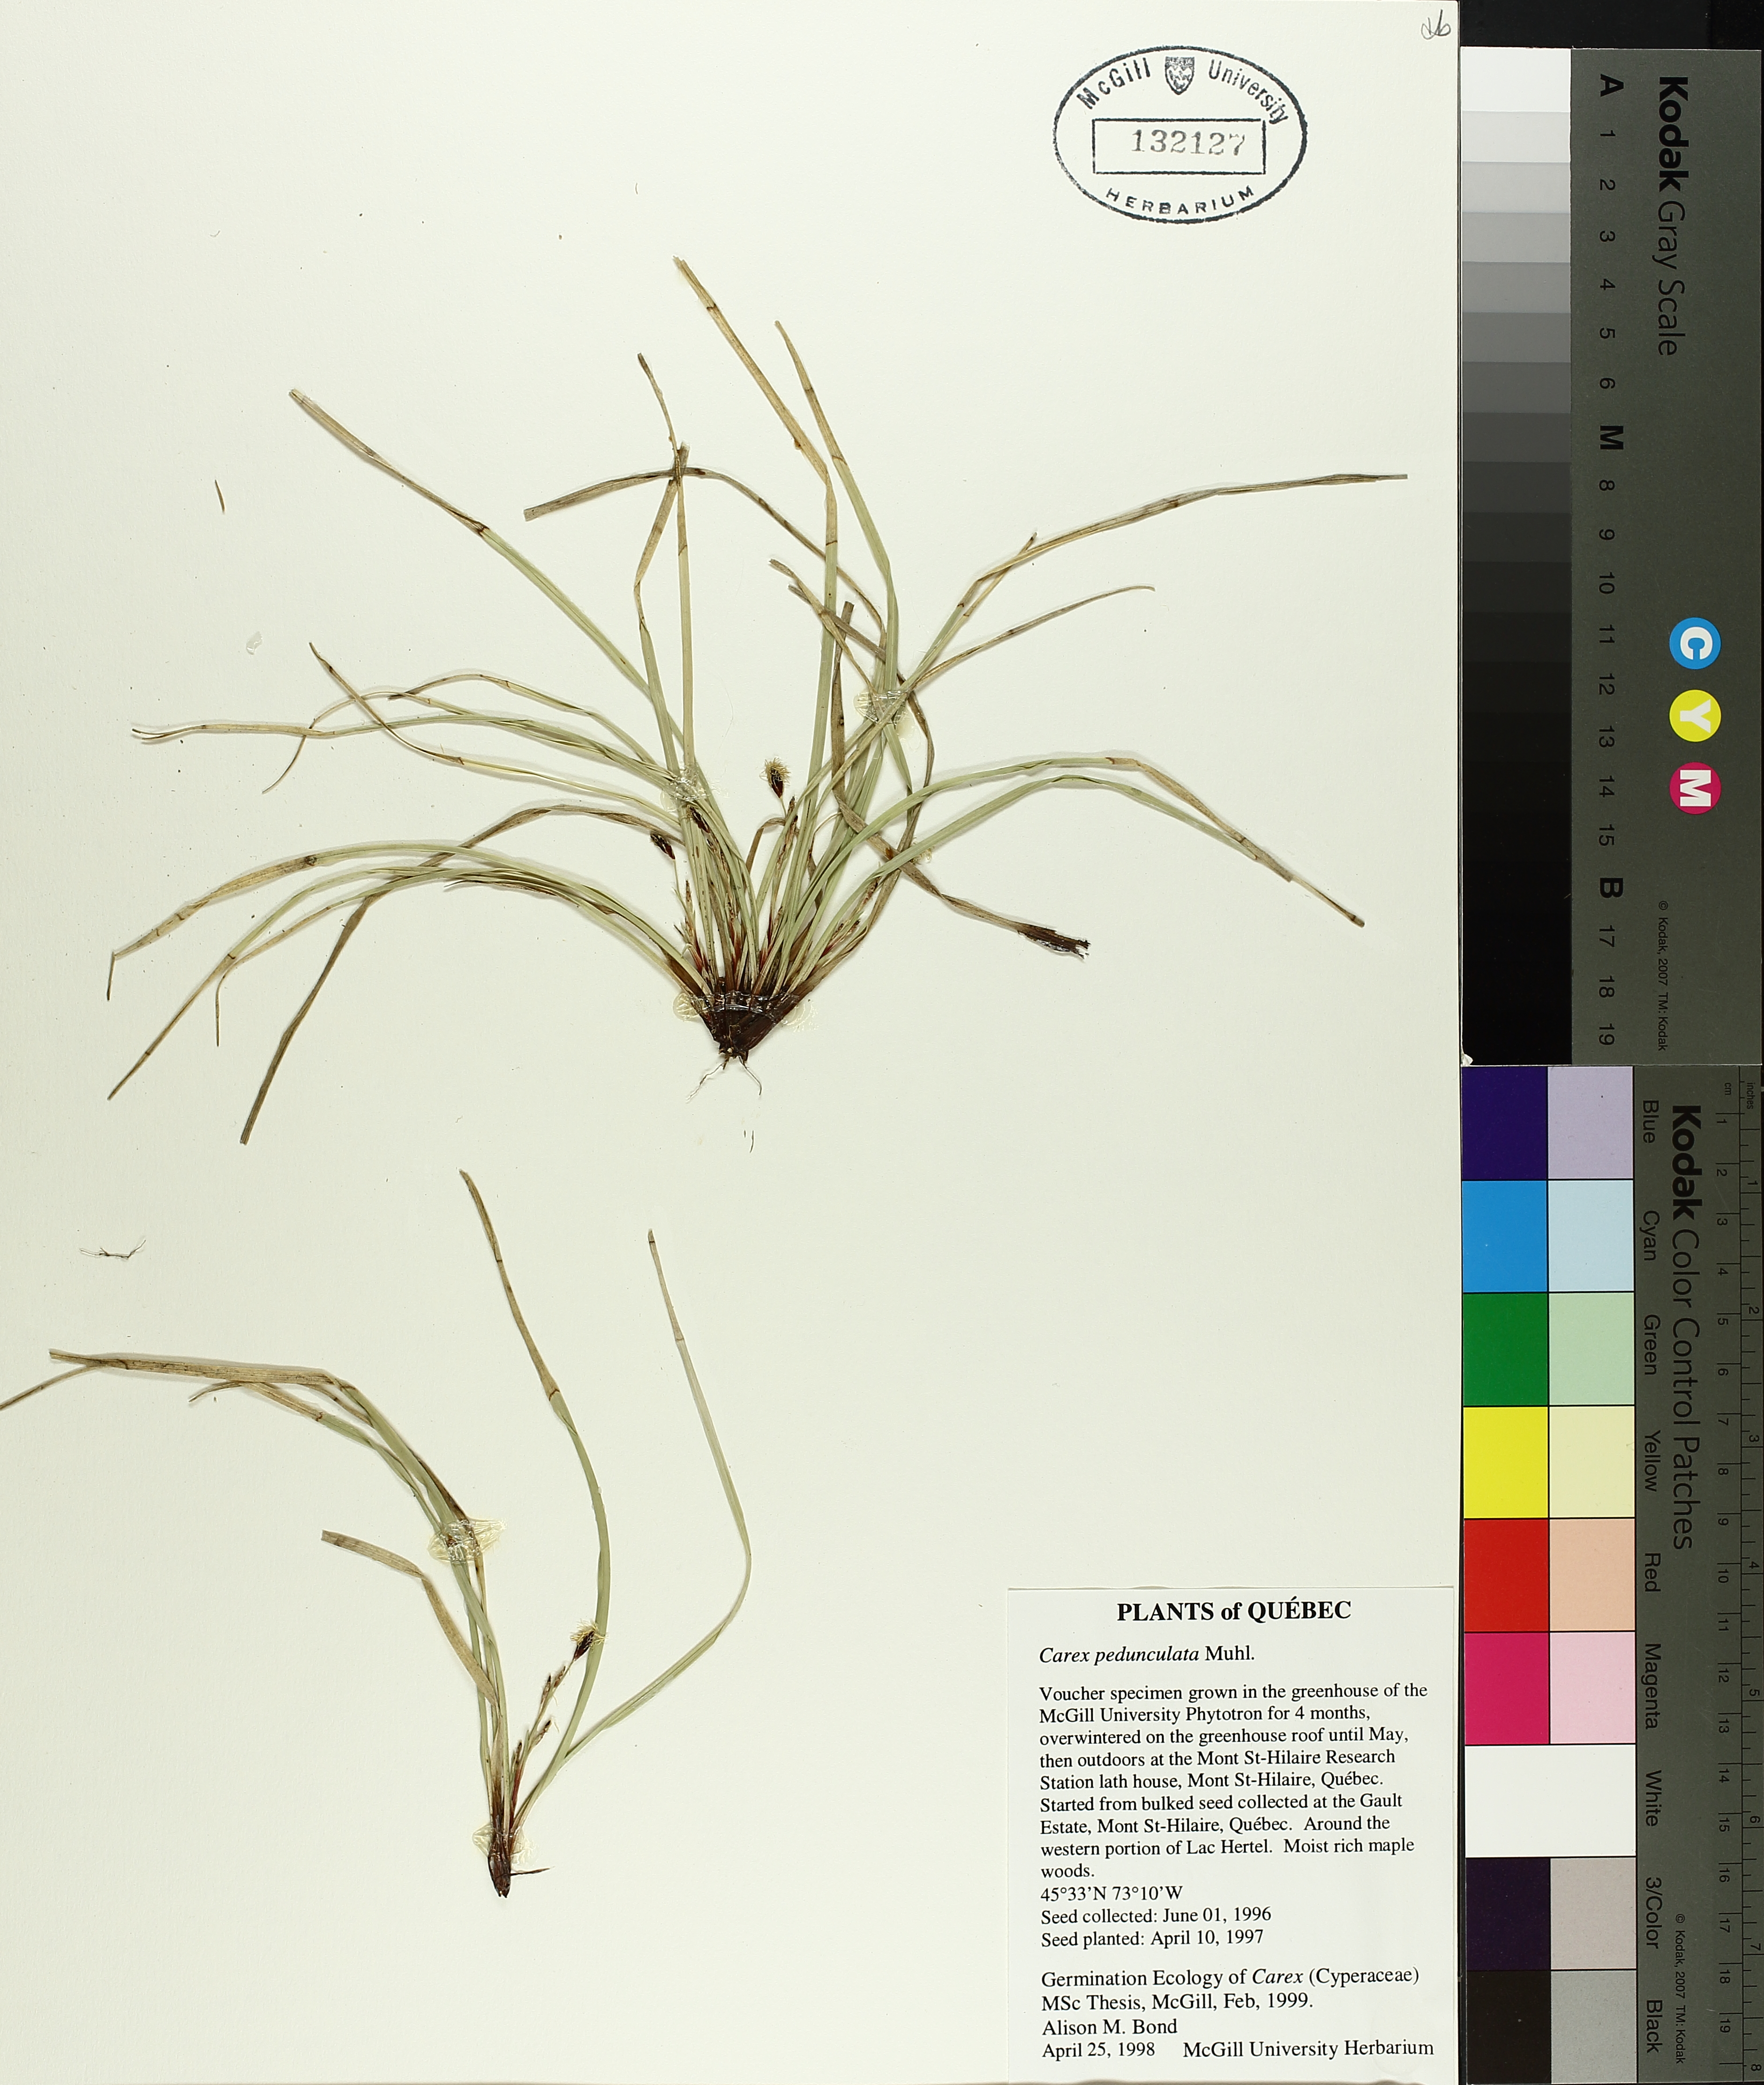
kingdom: Plantae
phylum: Tracheophyta
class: Liliopsida
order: Poales
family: Cyperaceae
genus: Carex
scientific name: Carex pedunculata
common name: Pedunculate sedge
